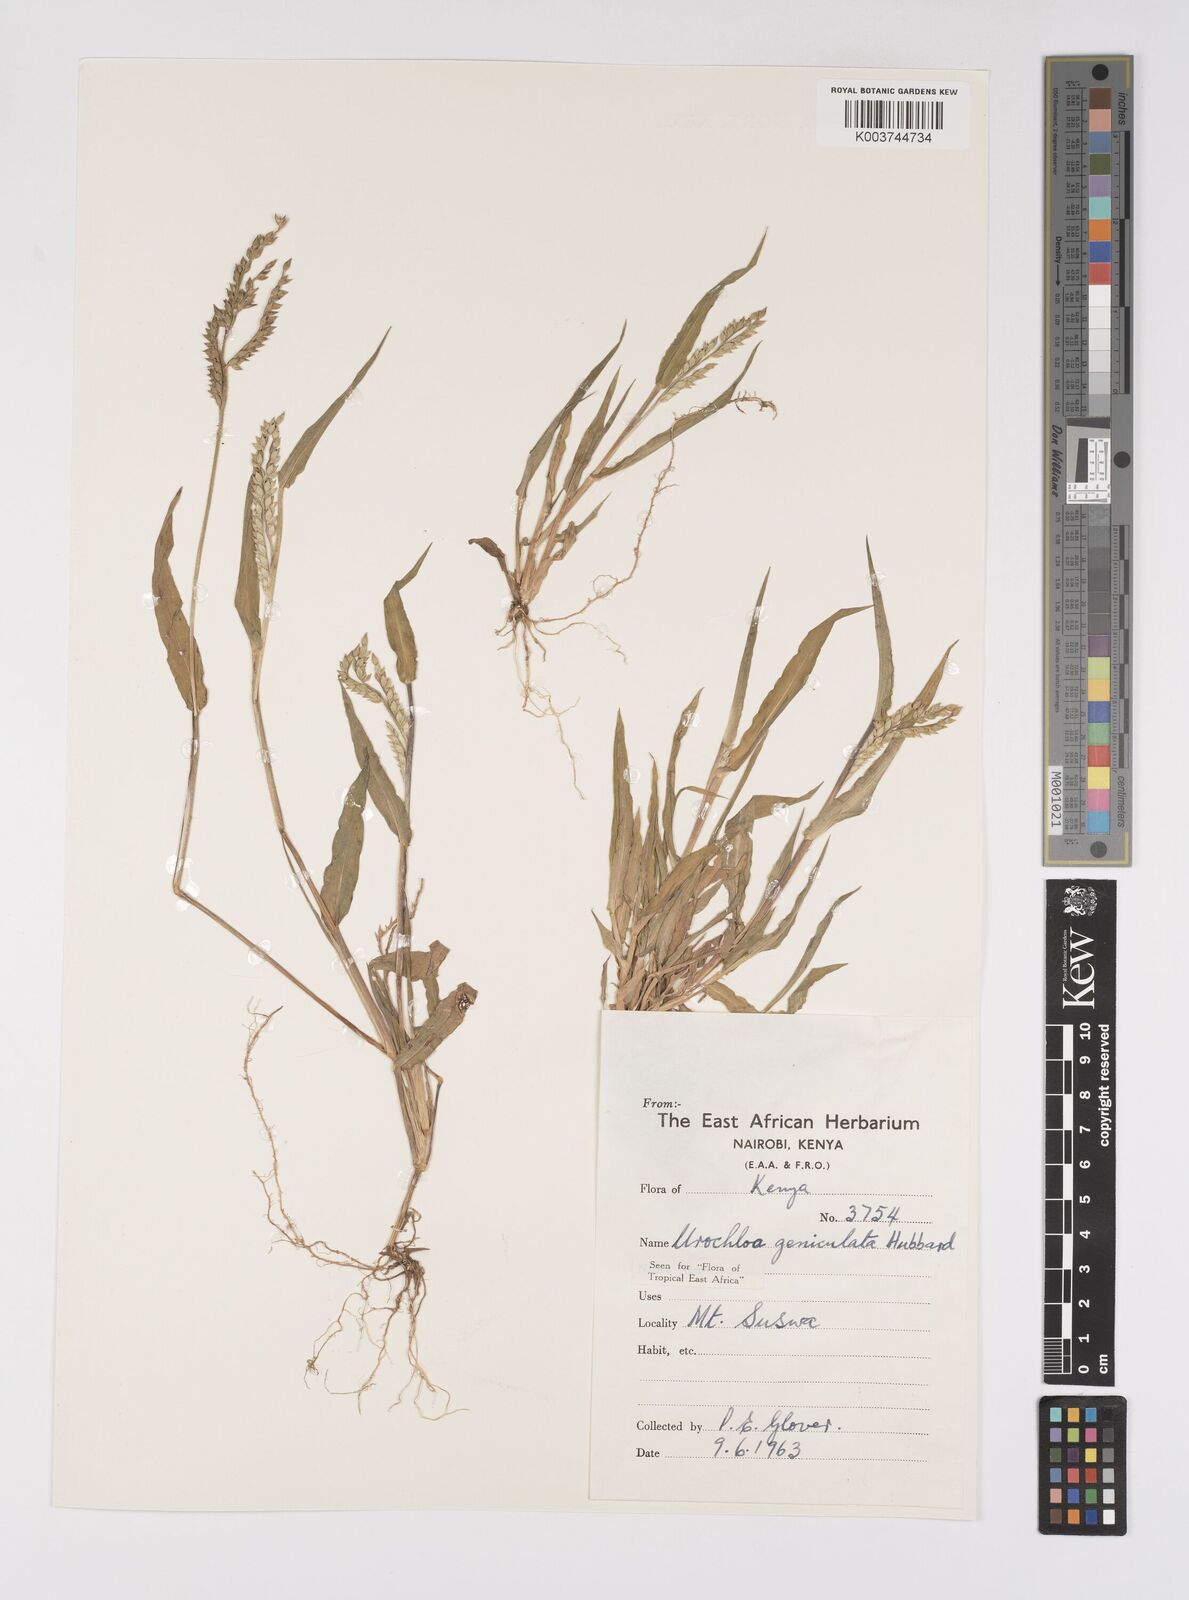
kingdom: Plantae
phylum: Tracheophyta
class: Liliopsida
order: Poales
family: Poaceae
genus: Urochloa
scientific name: Urochloa brachyura
